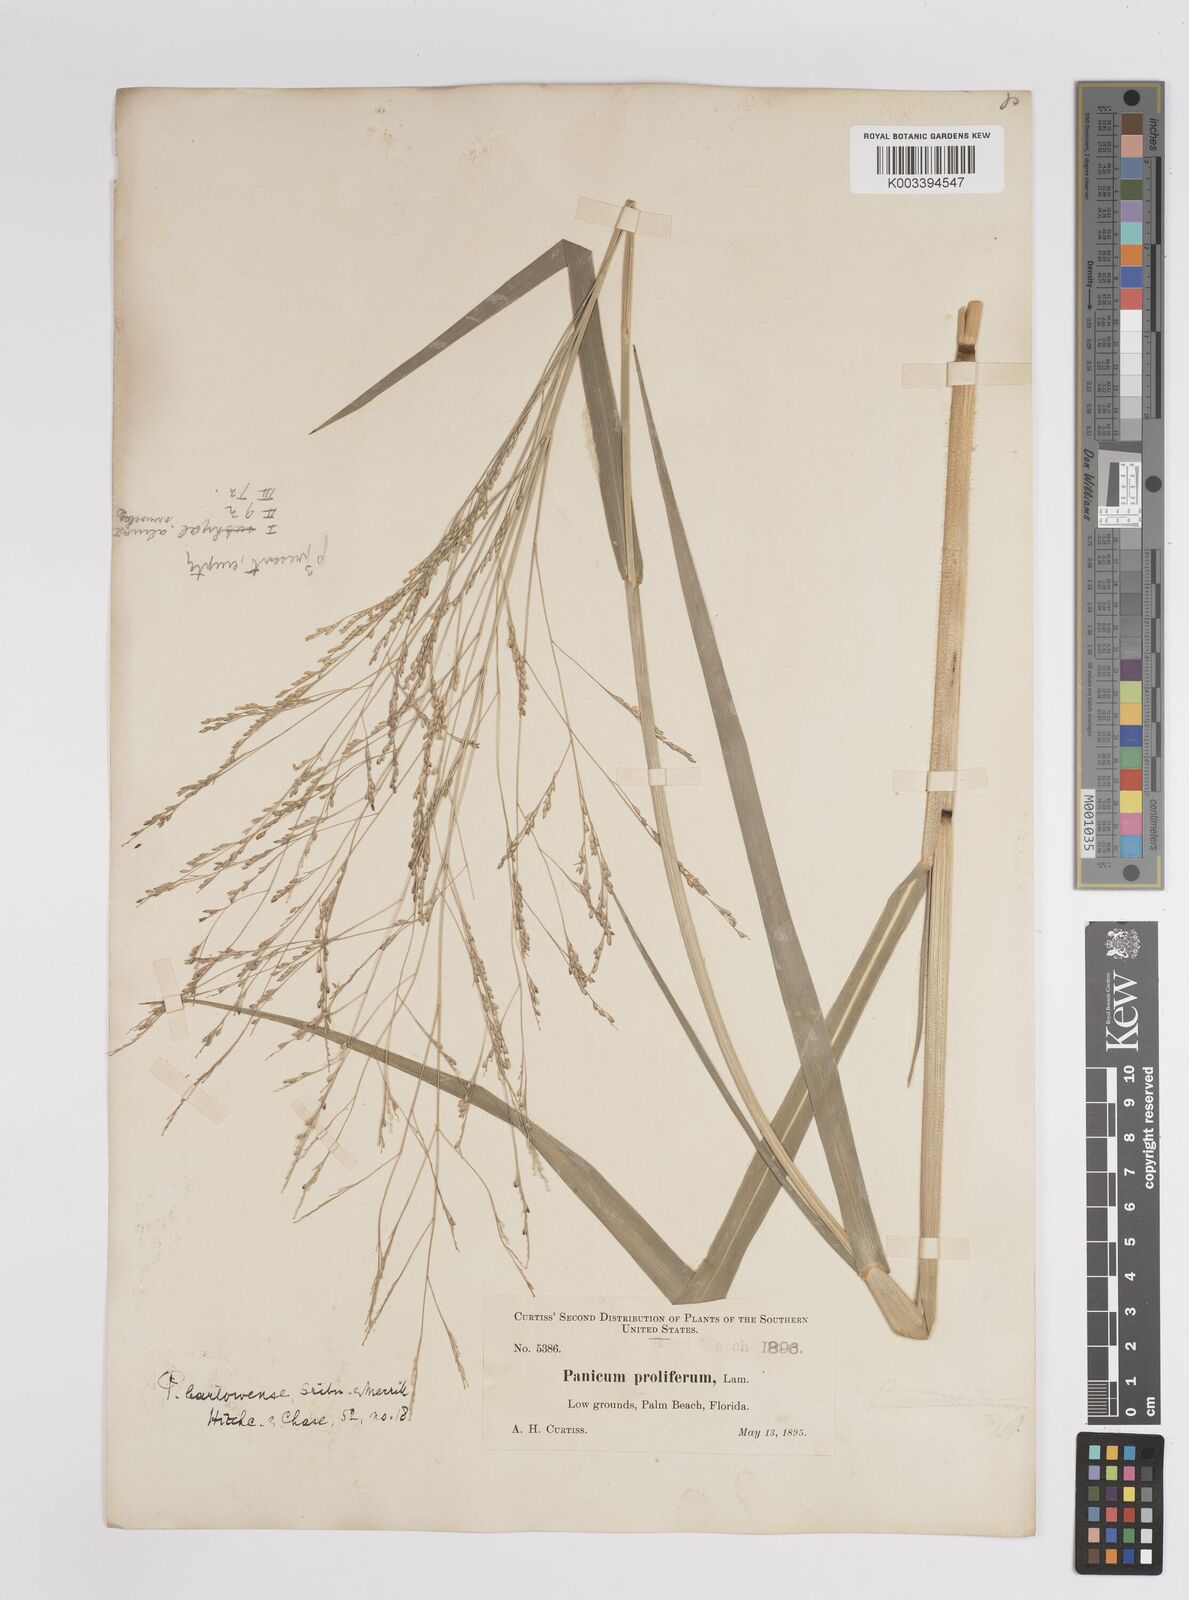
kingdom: Plantae
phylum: Tracheophyta
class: Liliopsida
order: Poales
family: Poaceae
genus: Panicum
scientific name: Panicum bartowense
